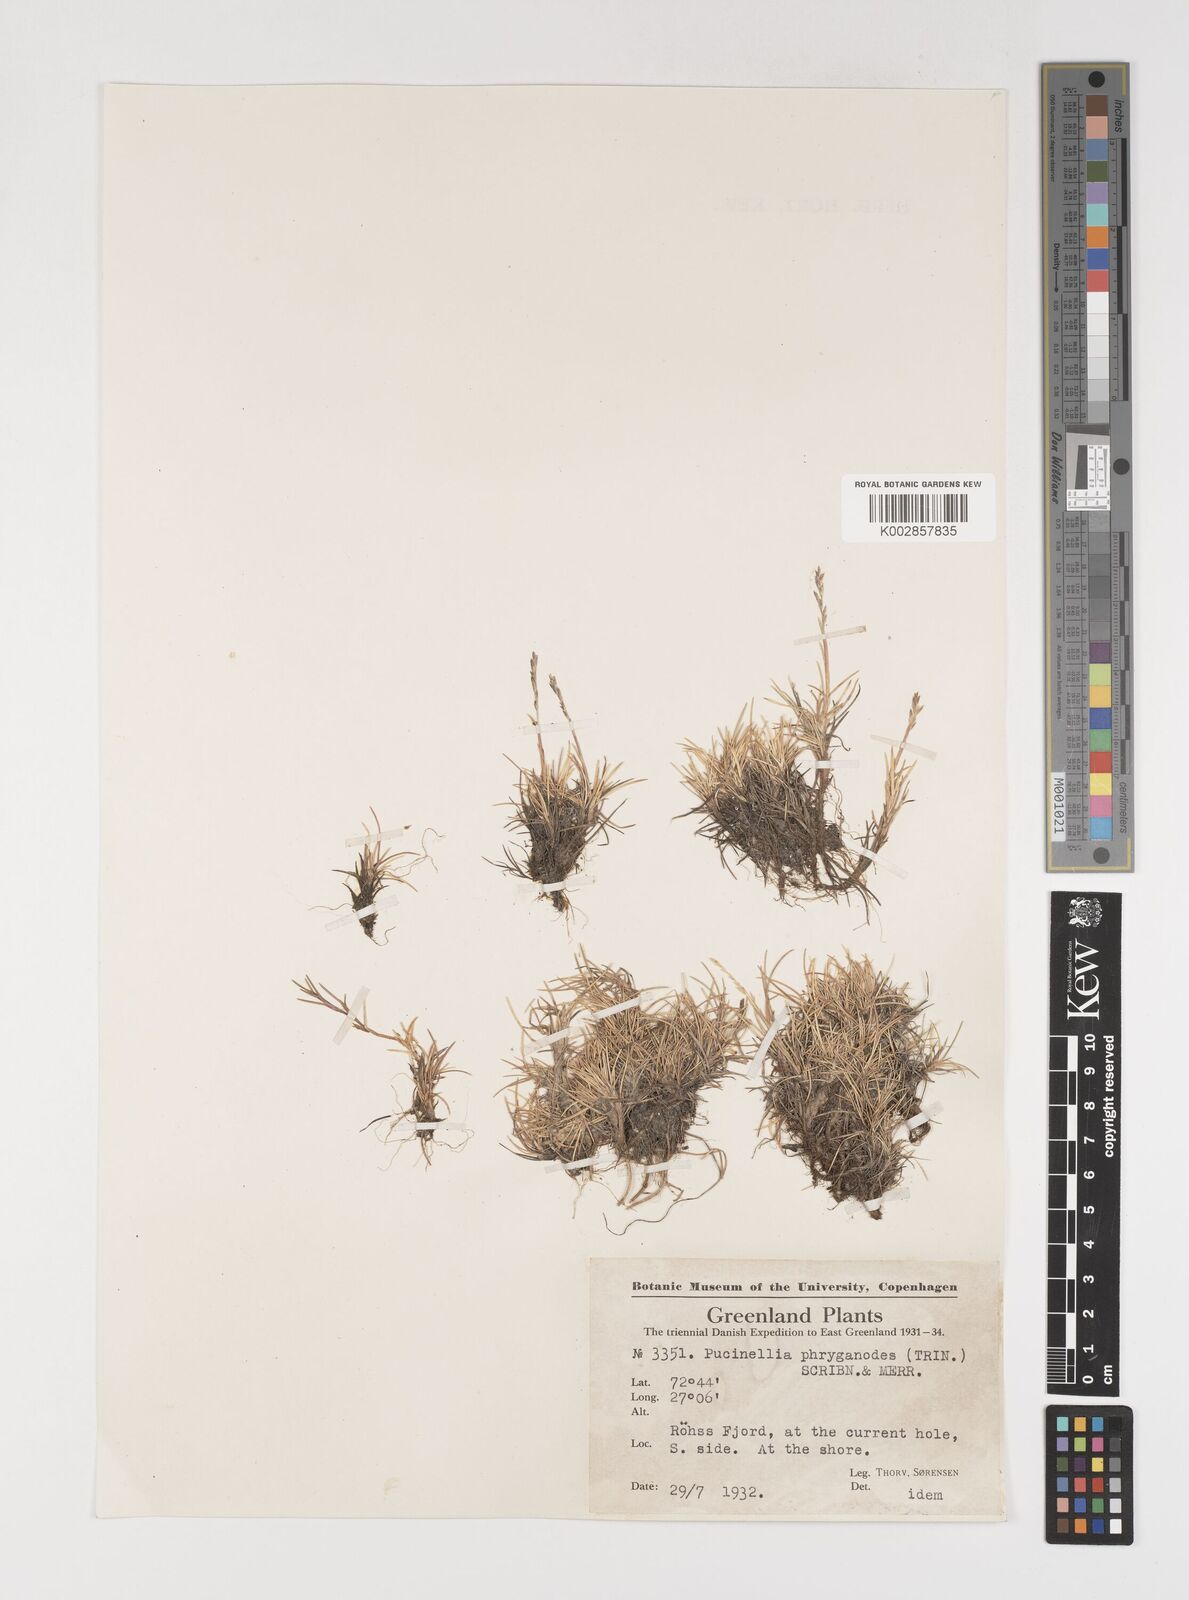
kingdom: Plantae
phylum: Tracheophyta
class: Liliopsida
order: Poales
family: Poaceae
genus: Puccinellia
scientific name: Puccinellia phryganodes
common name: Creeping alkaligrass
